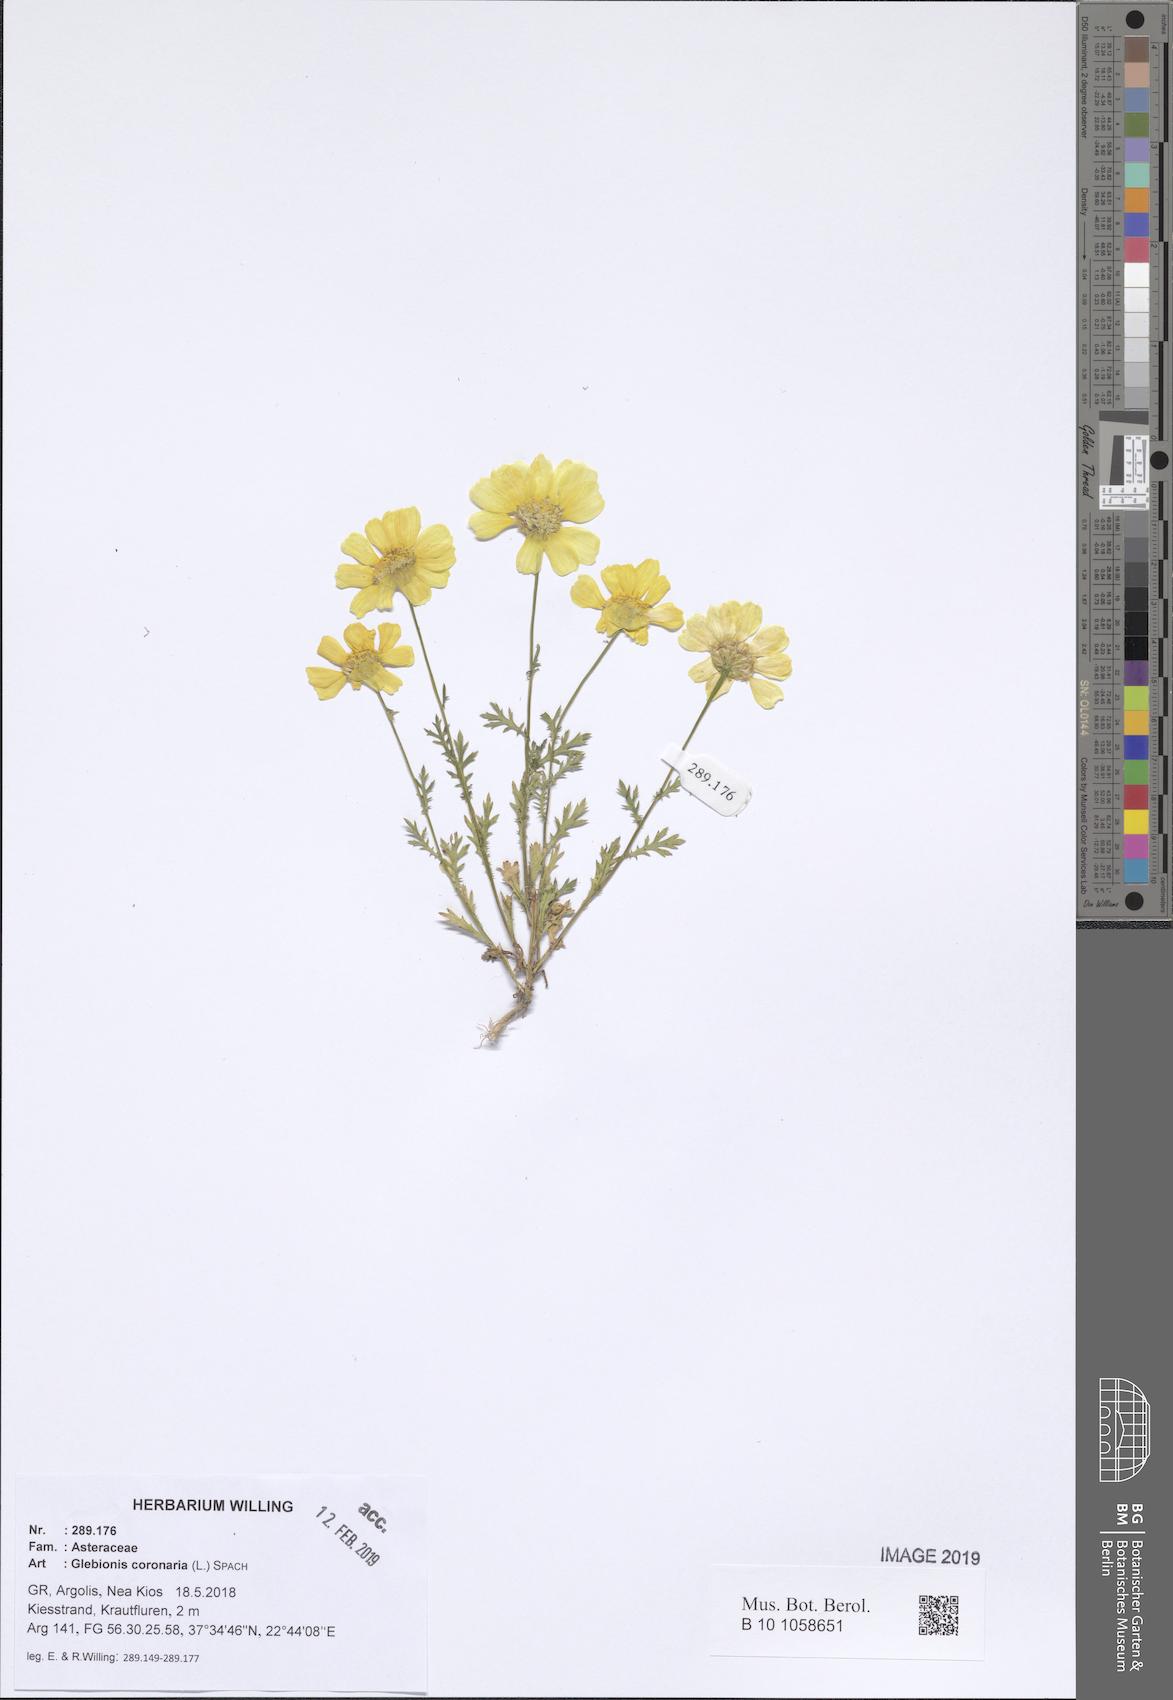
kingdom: Plantae
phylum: Tracheophyta
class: Magnoliopsida
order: Asterales
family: Asteraceae
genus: Glebionis
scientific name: Glebionis coronaria
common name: Crowndaisy
